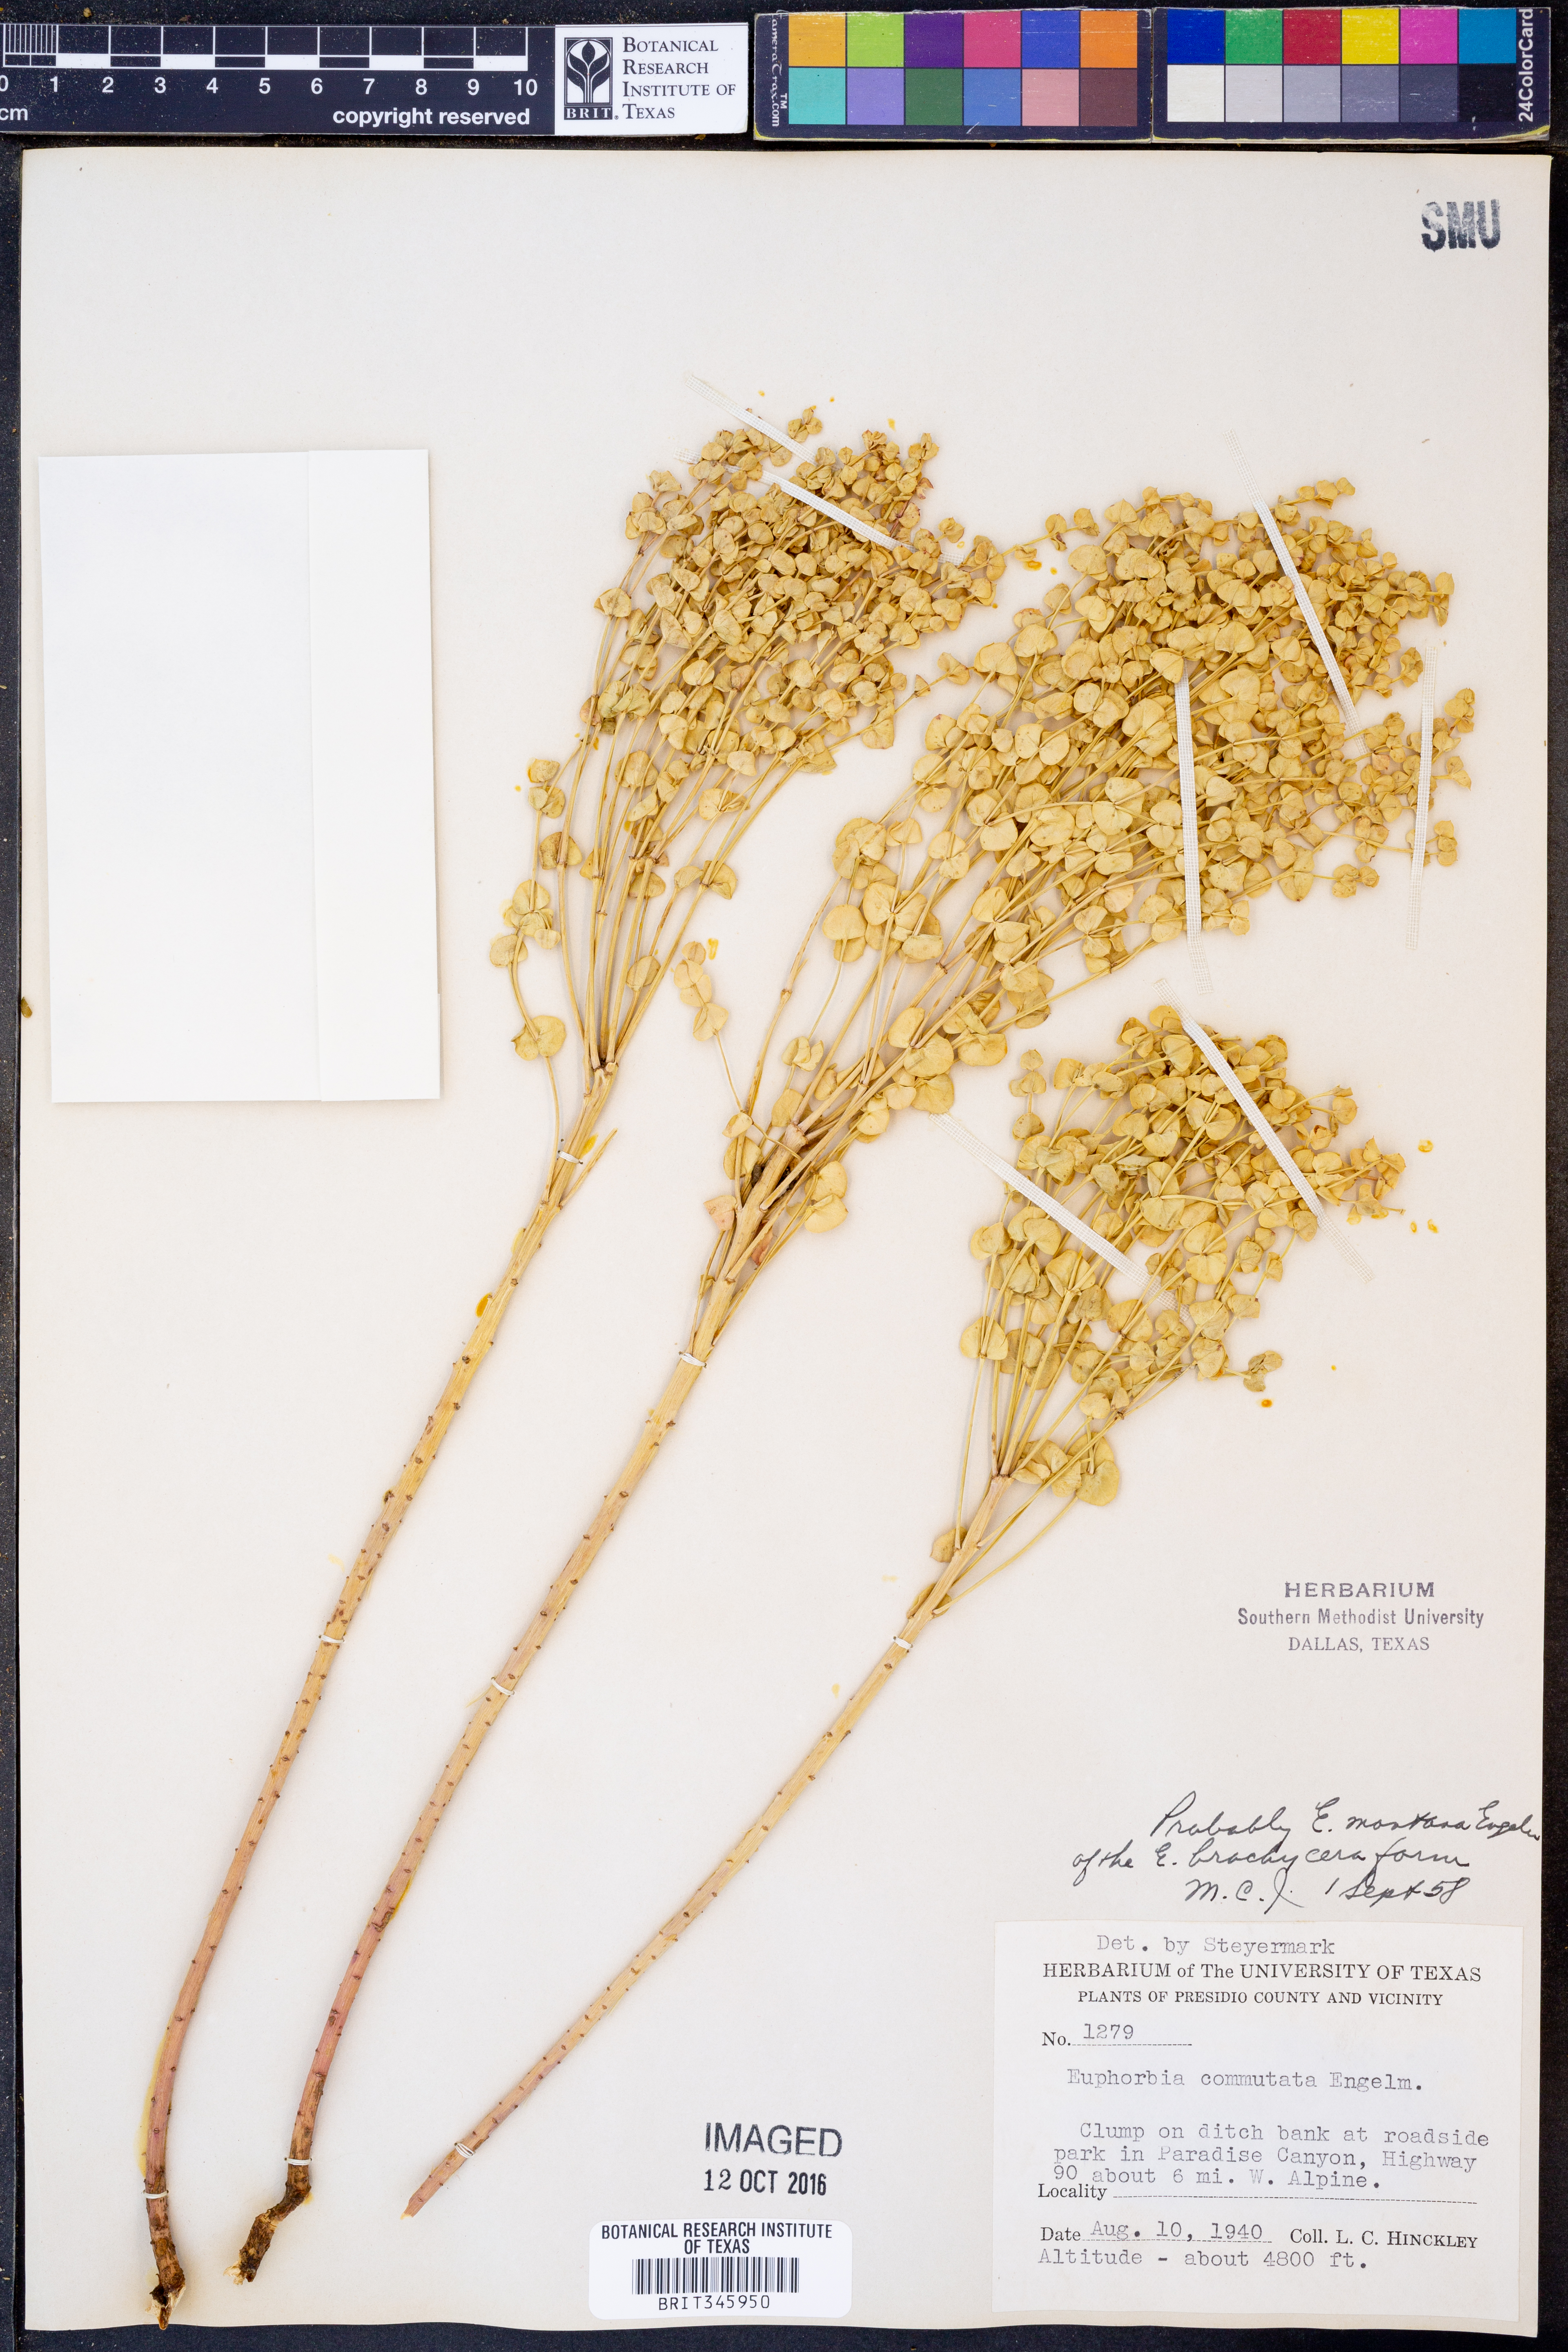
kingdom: Plantae
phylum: Tracheophyta
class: Magnoliopsida
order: Malpighiales
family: Euphorbiaceae
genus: Euphorbia
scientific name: Euphorbia commutata
